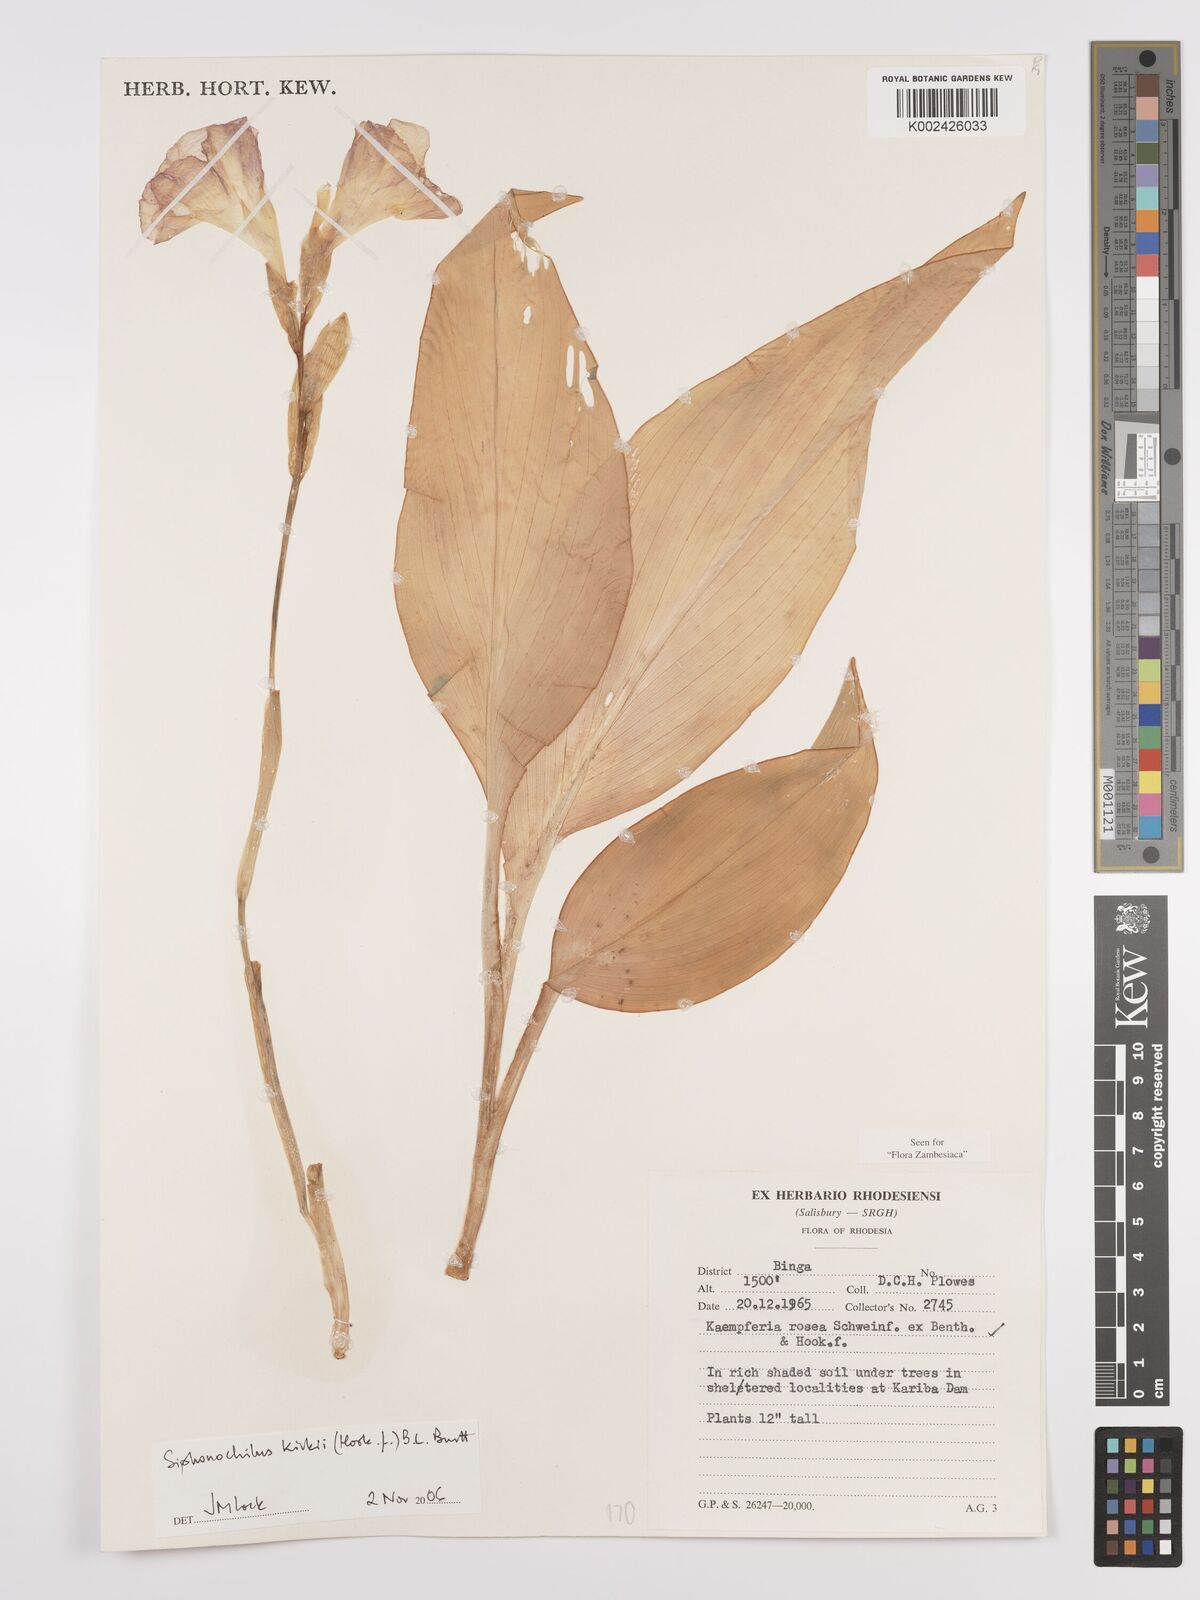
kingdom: Plantae
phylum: Tracheophyta
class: Liliopsida
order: Zingiberales
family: Zingiberaceae
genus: Siphonochilus
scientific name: Siphonochilus kirkii
